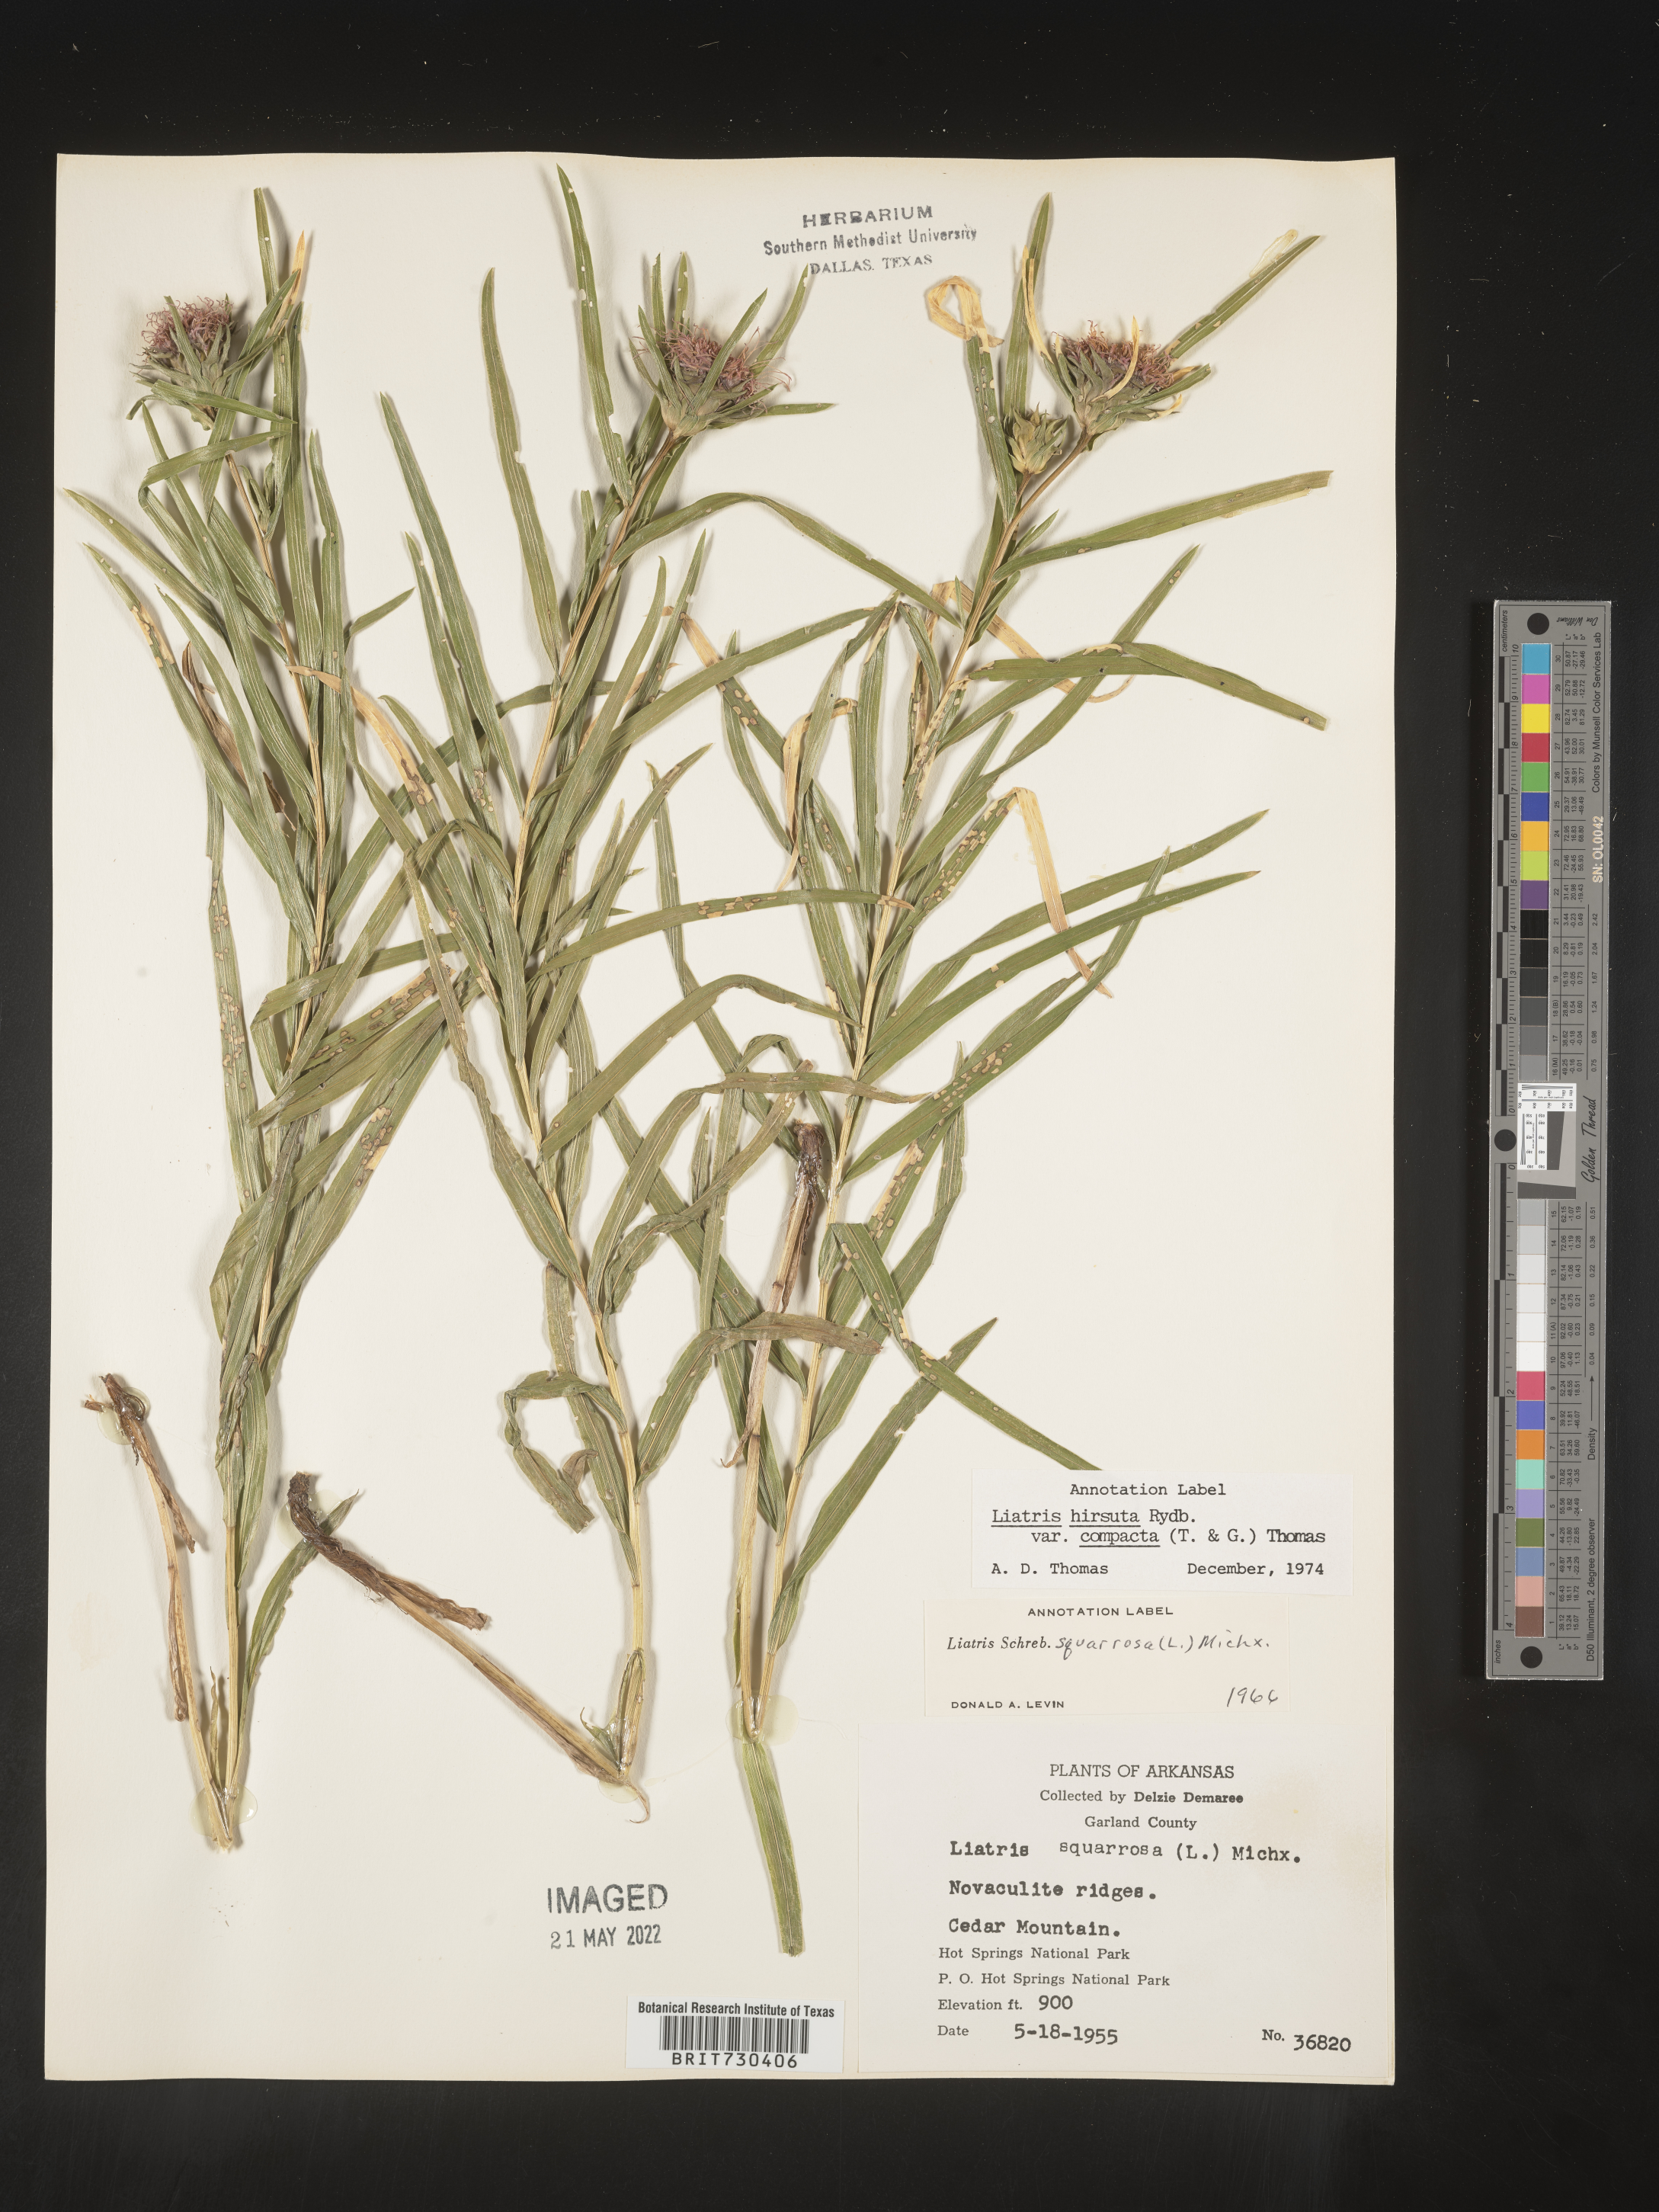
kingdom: Plantae
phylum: Tracheophyta
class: Magnoliopsida
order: Asterales
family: Asteraceae
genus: Liatris
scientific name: Liatris compacta
